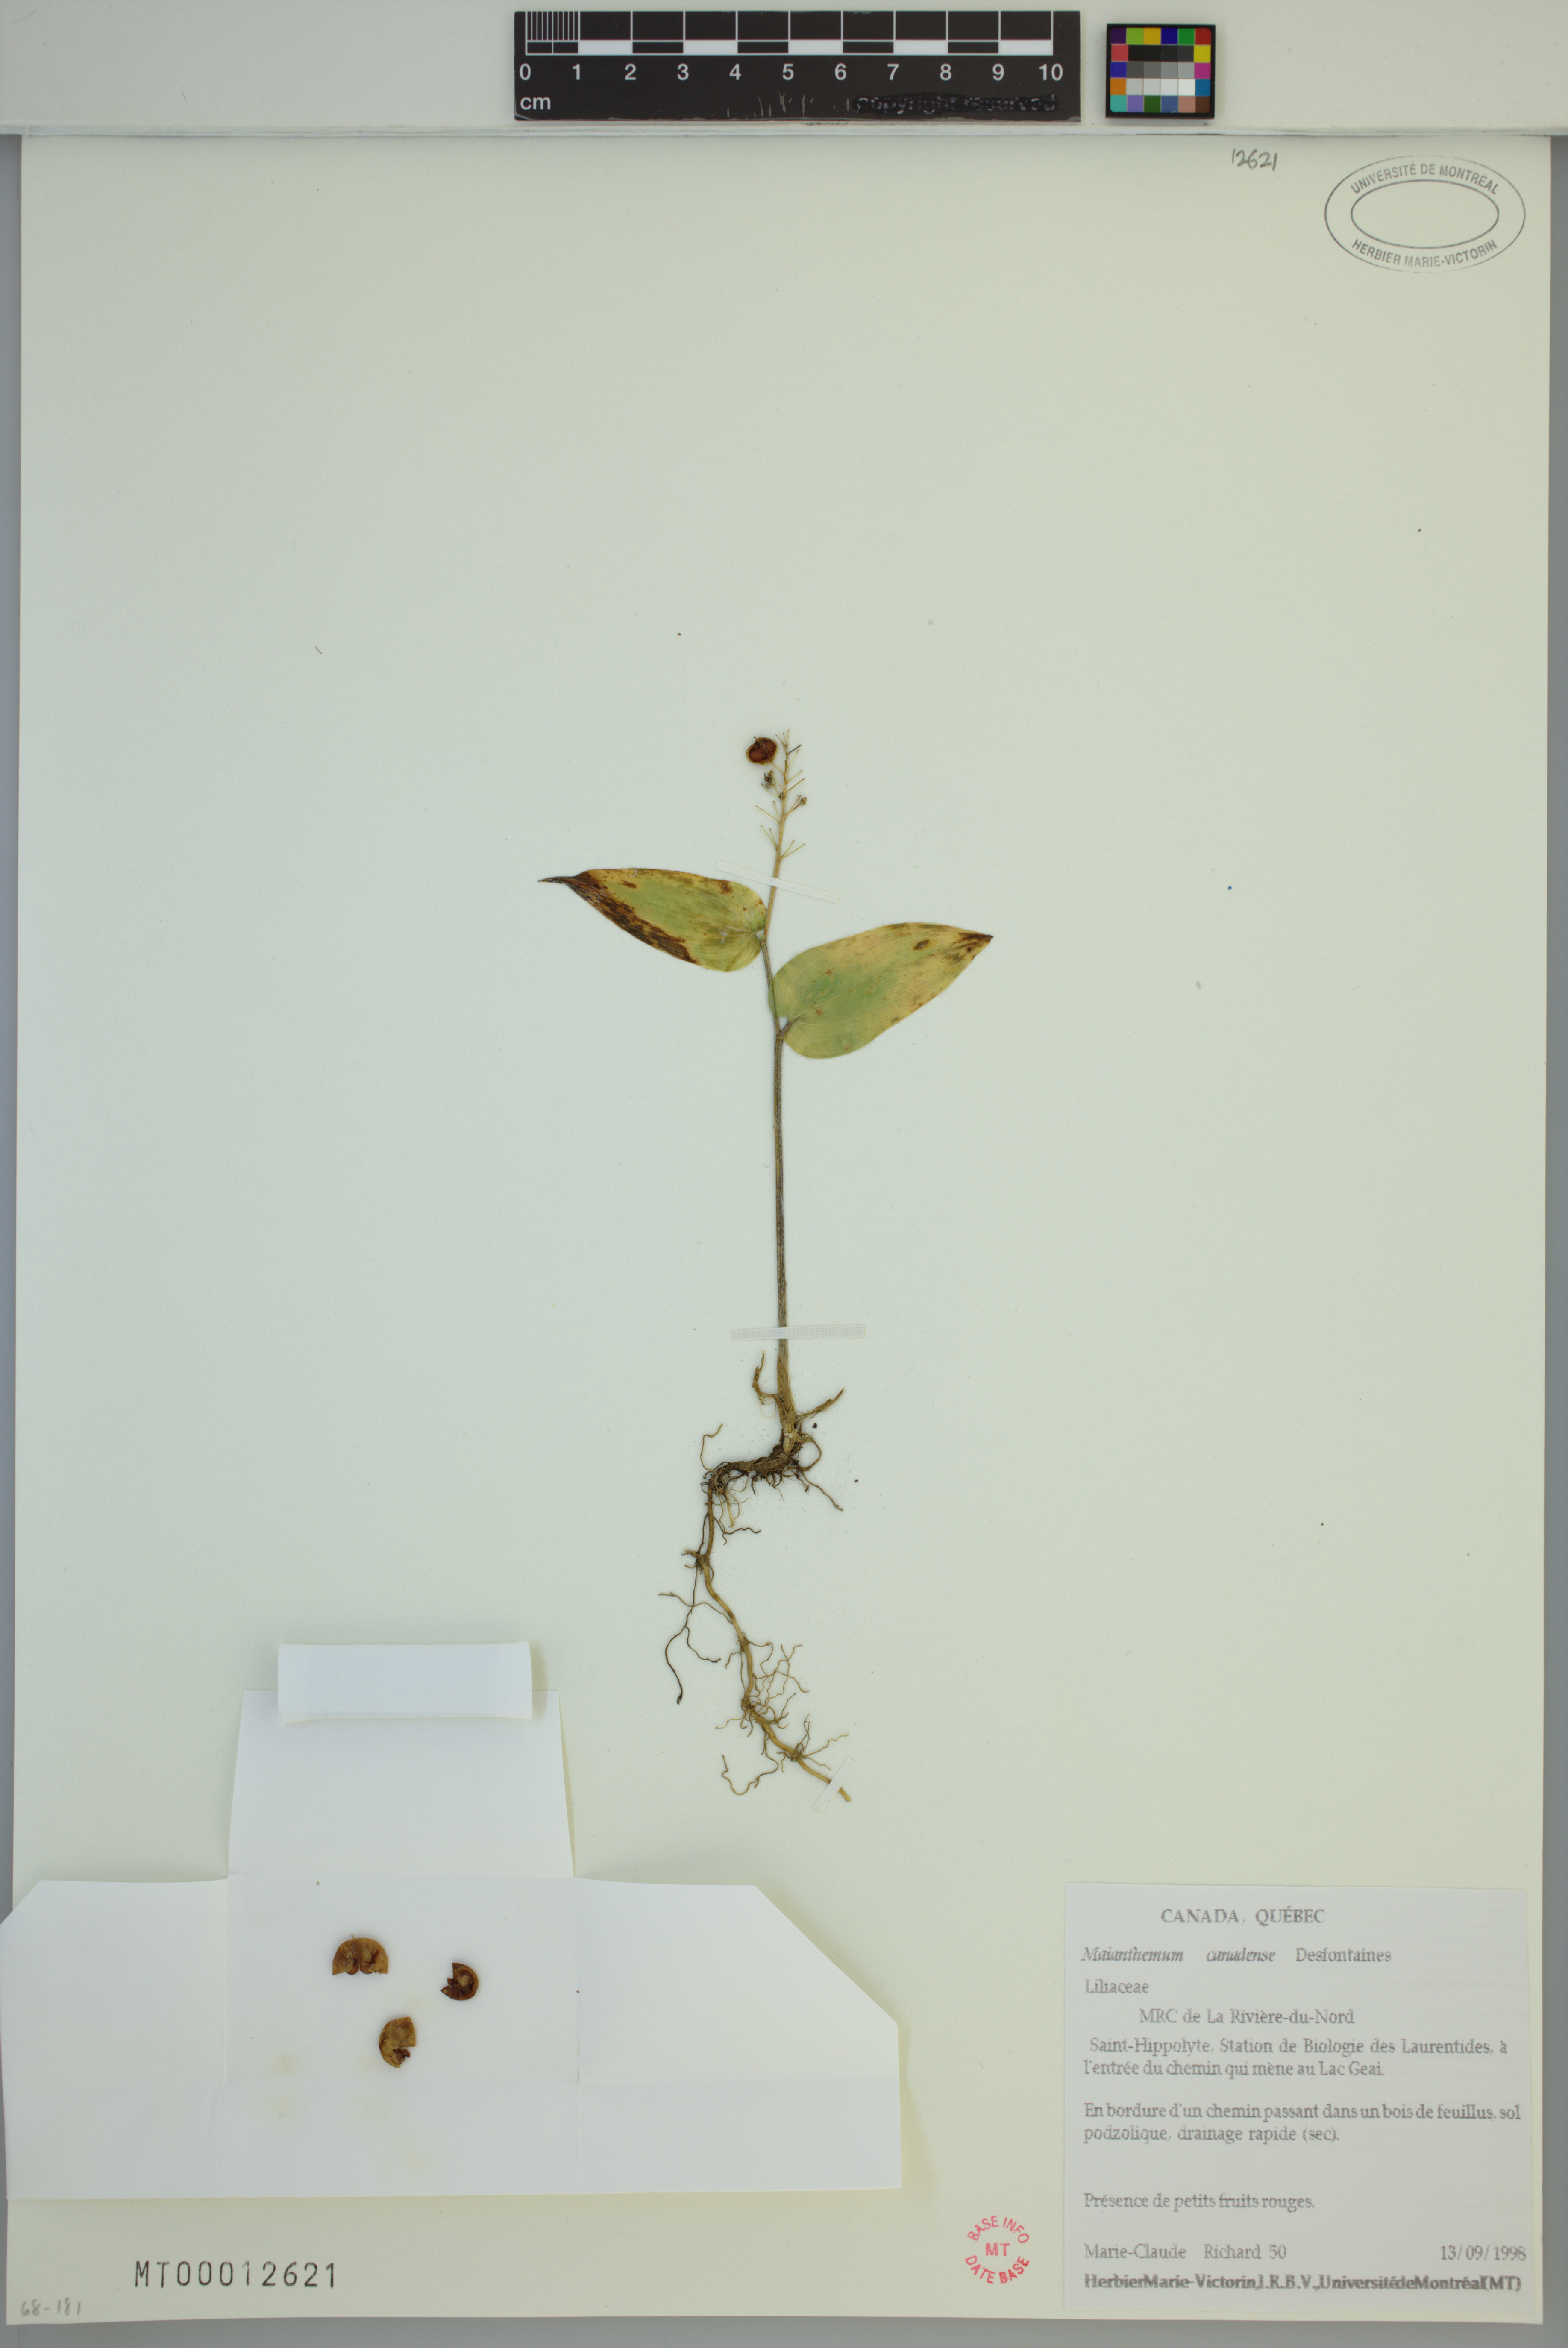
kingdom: Plantae
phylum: Tracheophyta
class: Liliopsida
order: Asparagales
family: Asparagaceae
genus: Maianthemum
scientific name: Maianthemum canadense
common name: False lily-of-the-valley
